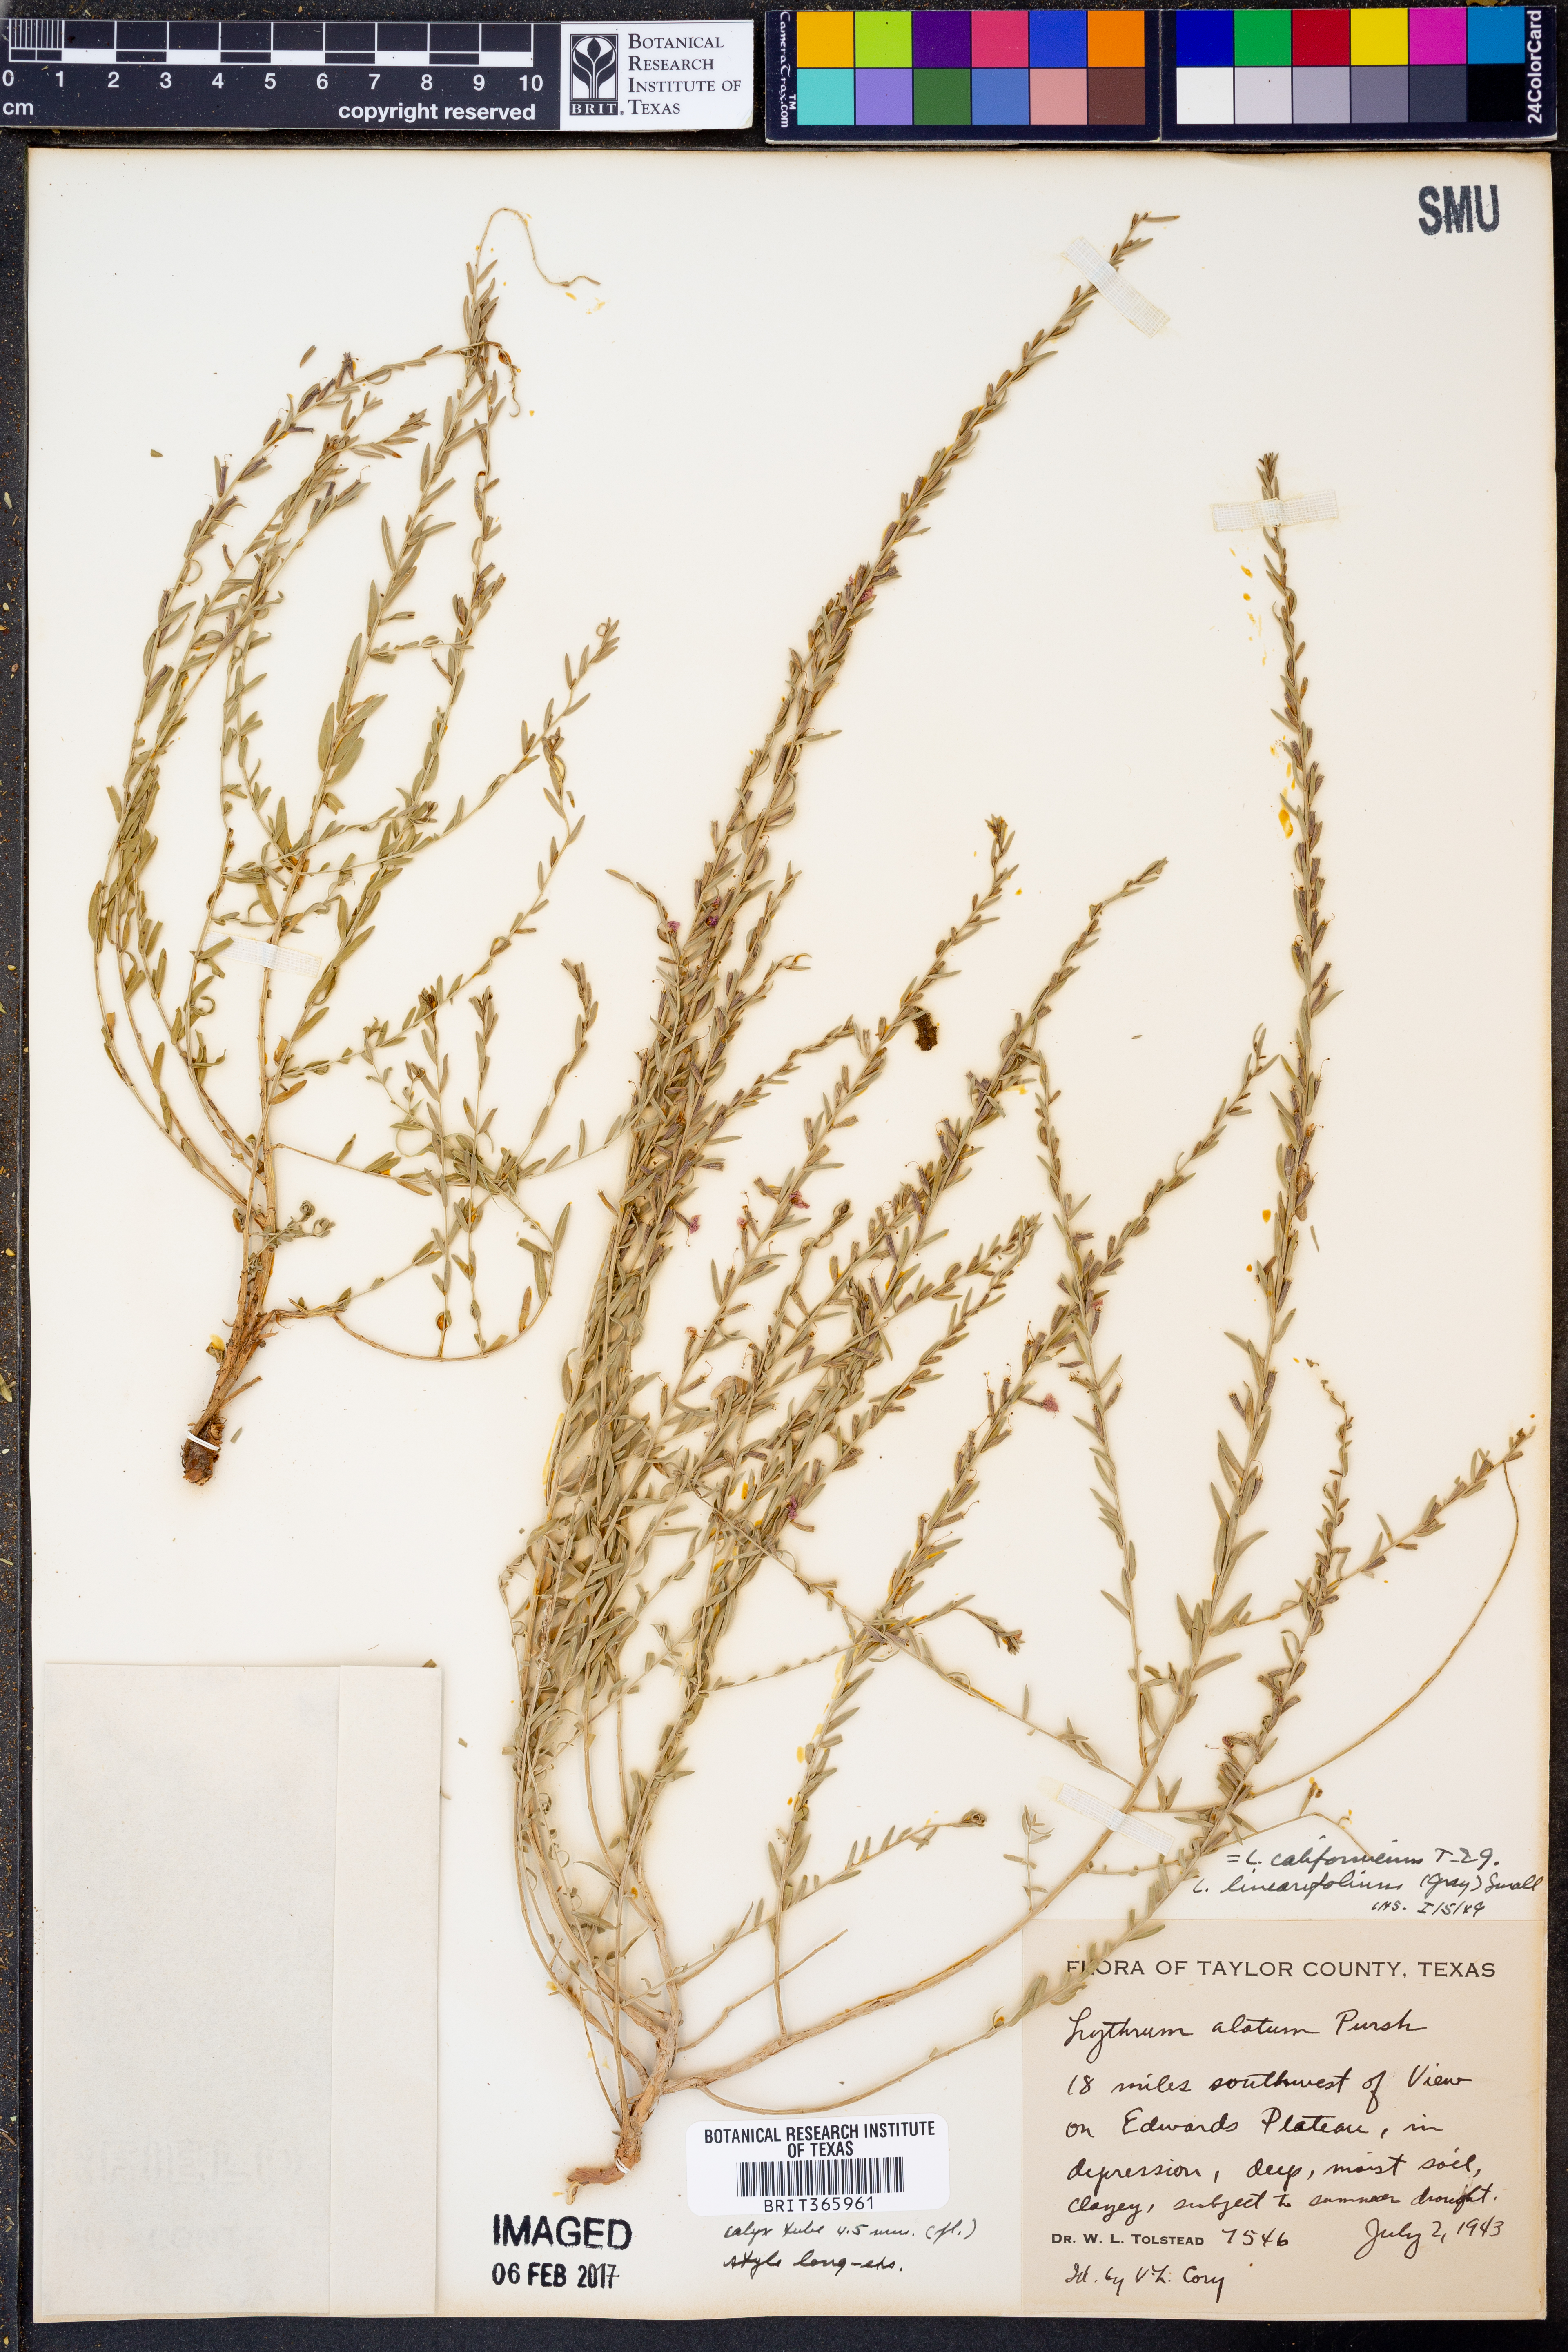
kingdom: Plantae
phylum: Tracheophyta
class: Magnoliopsida
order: Myrtales
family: Lythraceae
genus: Lythrum
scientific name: Lythrum californicum
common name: California loosestrife
